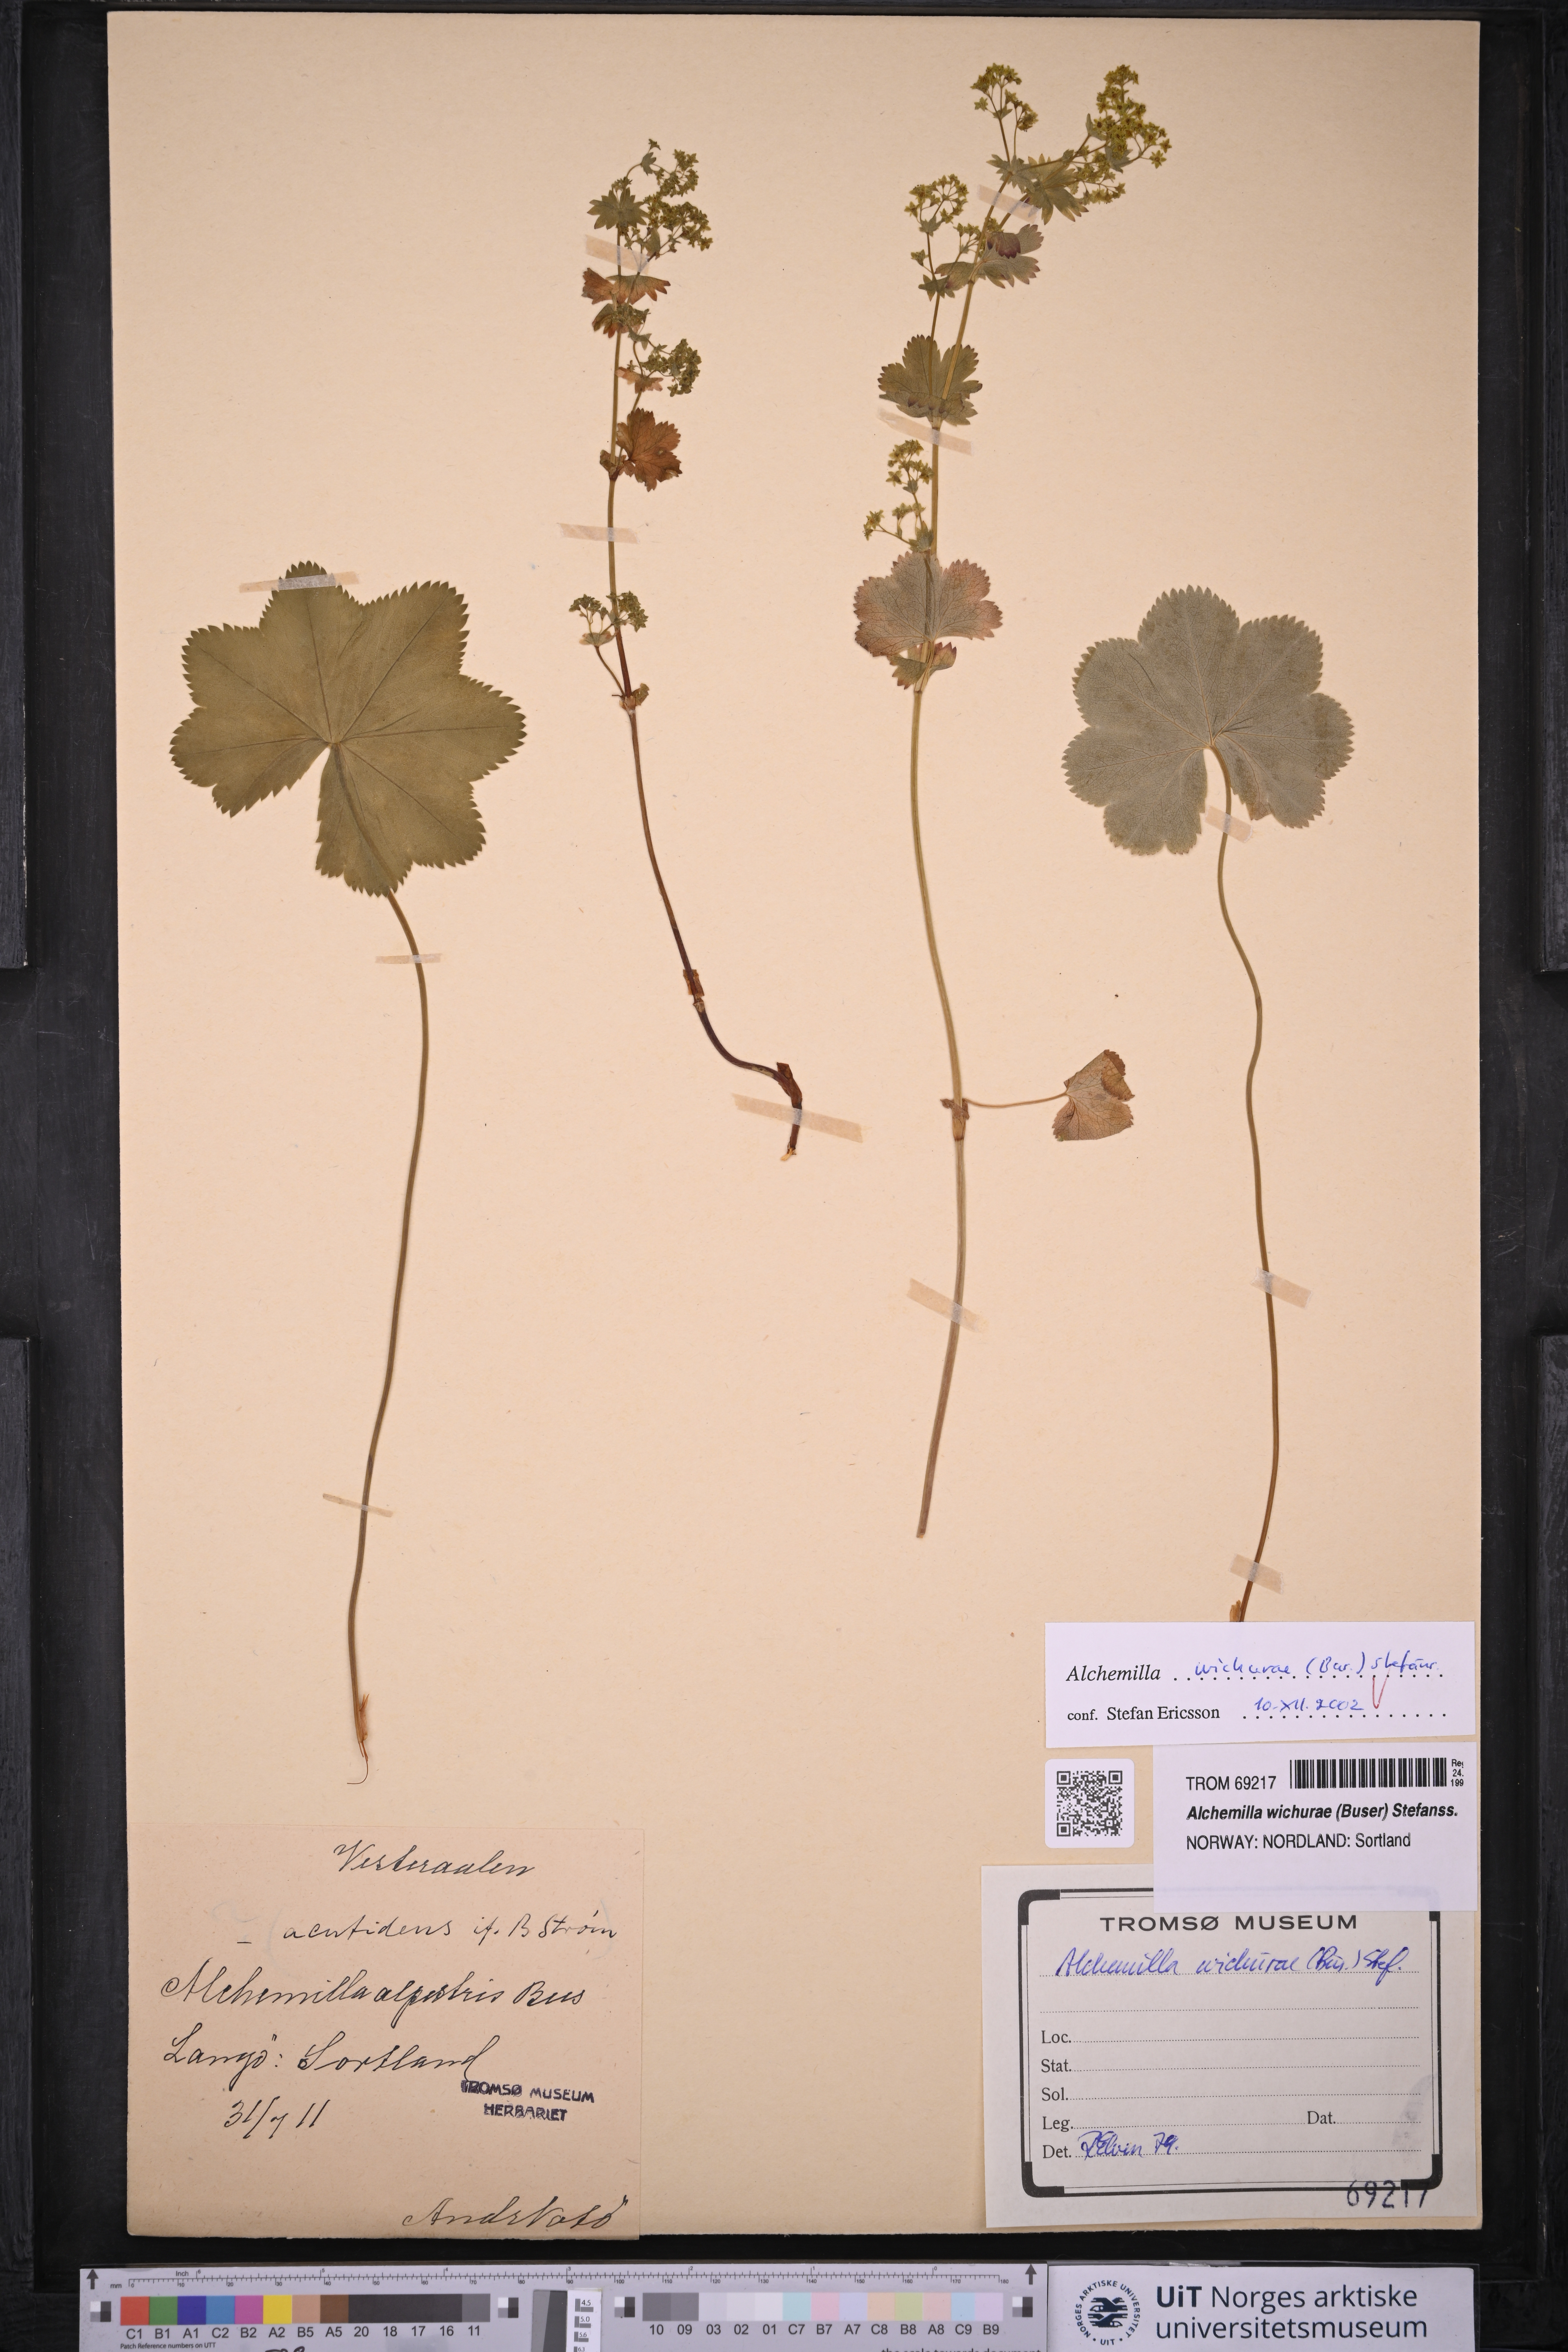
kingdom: Plantae
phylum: Tracheophyta
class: Magnoliopsida
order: Rosales
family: Rosaceae
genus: Alchemilla
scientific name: Alchemilla wichurae
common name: Rock lady's mantle
